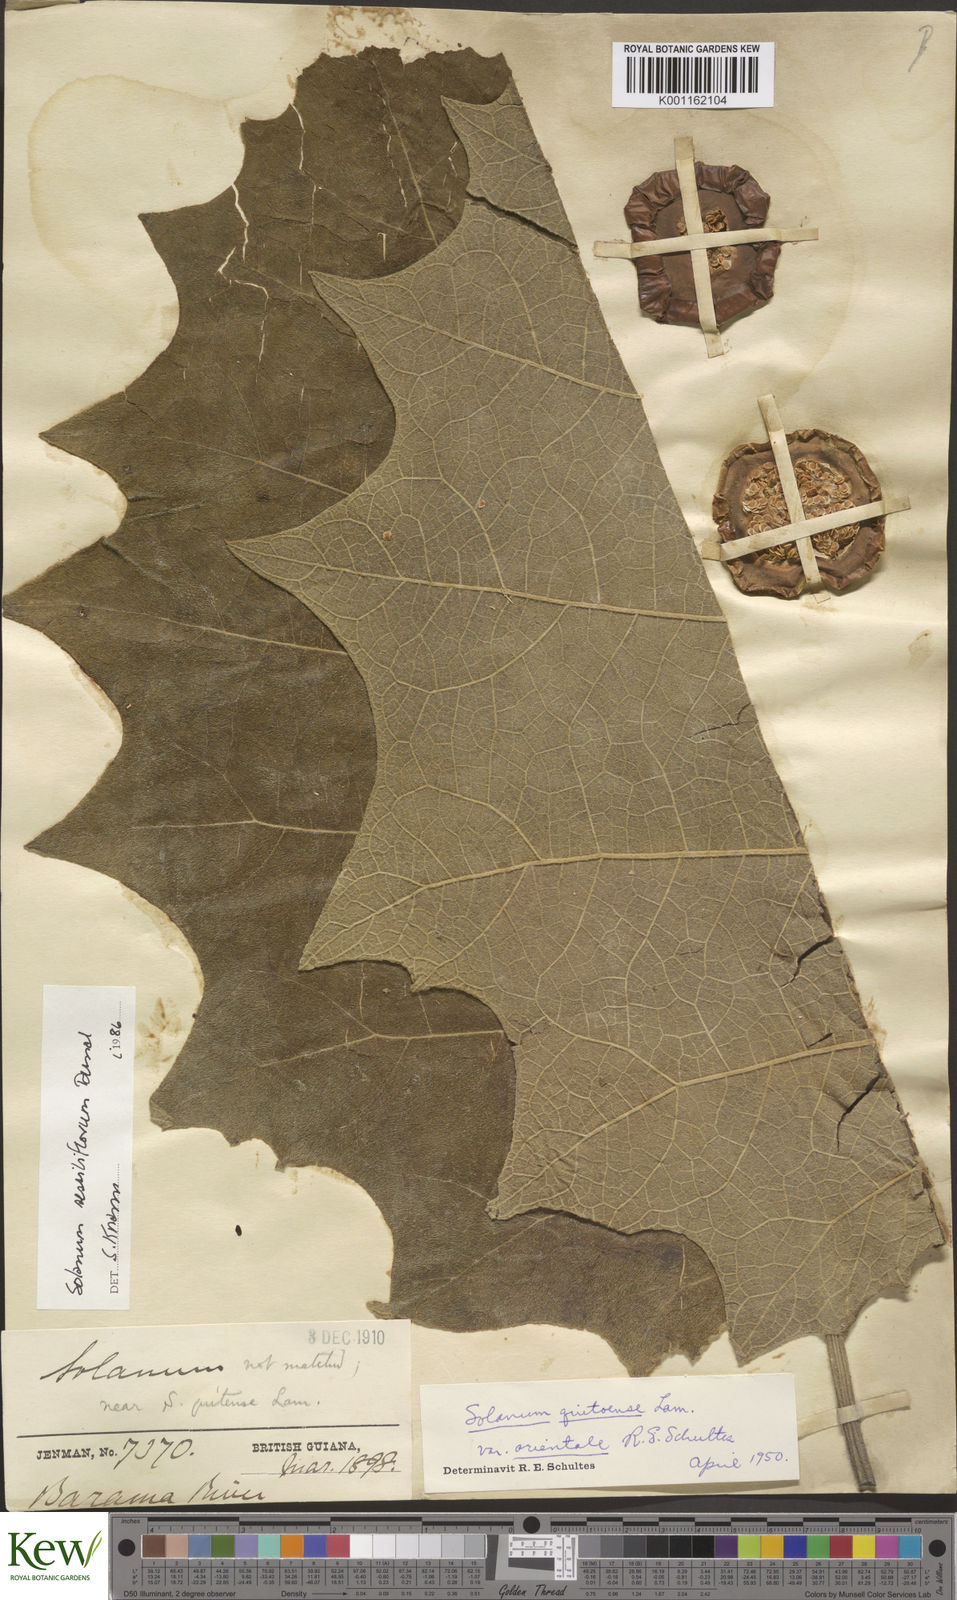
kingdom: Plantae
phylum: Tracheophyta
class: Magnoliopsida
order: Solanales
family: Solanaceae
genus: Solanum
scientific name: Solanum sessiliflorum
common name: Orinoco-apple
